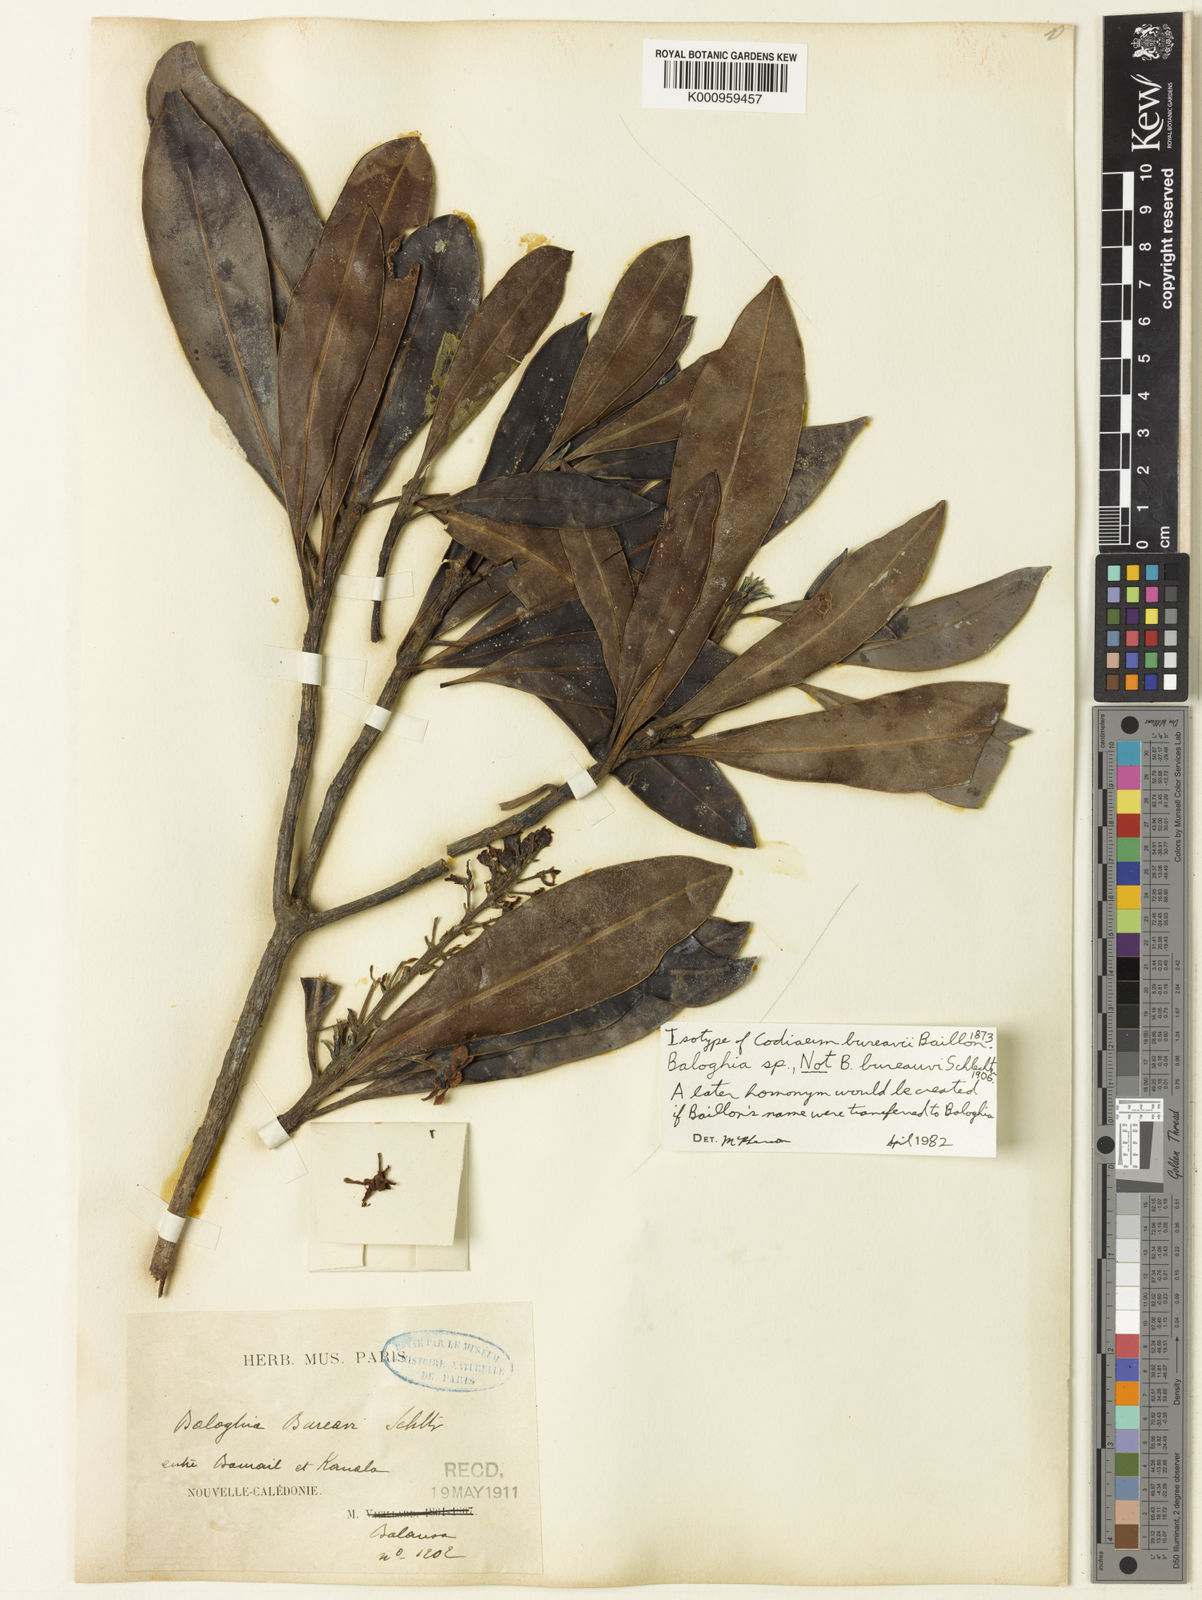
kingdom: Plantae
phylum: Tracheophyta
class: Magnoliopsida
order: Malpighiales
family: Euphorbiaceae
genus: Baloghia
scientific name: Baloghia bureavii
